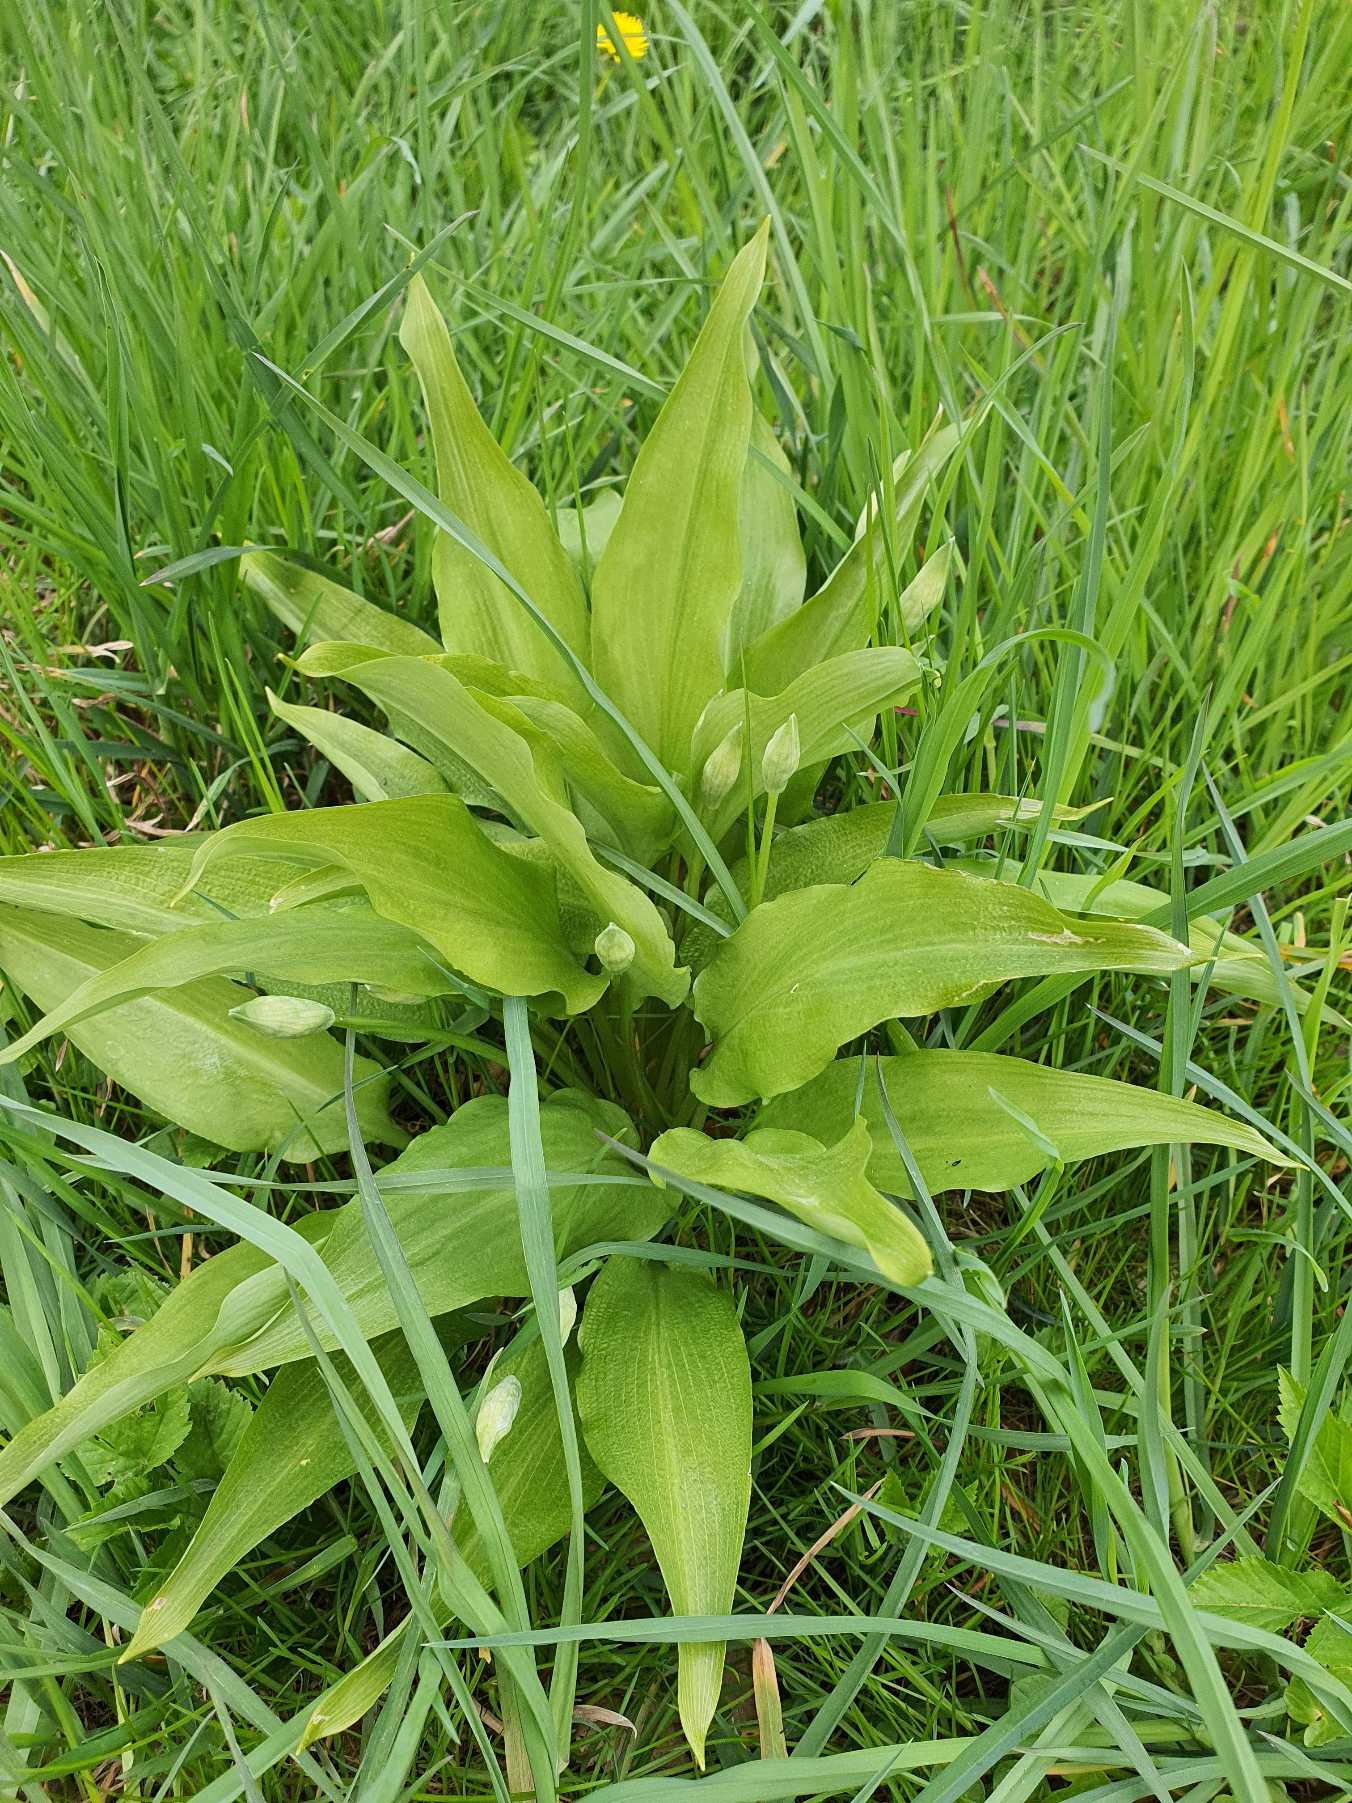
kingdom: Plantae
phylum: Tracheophyta
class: Liliopsida
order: Asparagales
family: Amaryllidaceae
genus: Allium
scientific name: Allium ursinum
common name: Rams-løg
